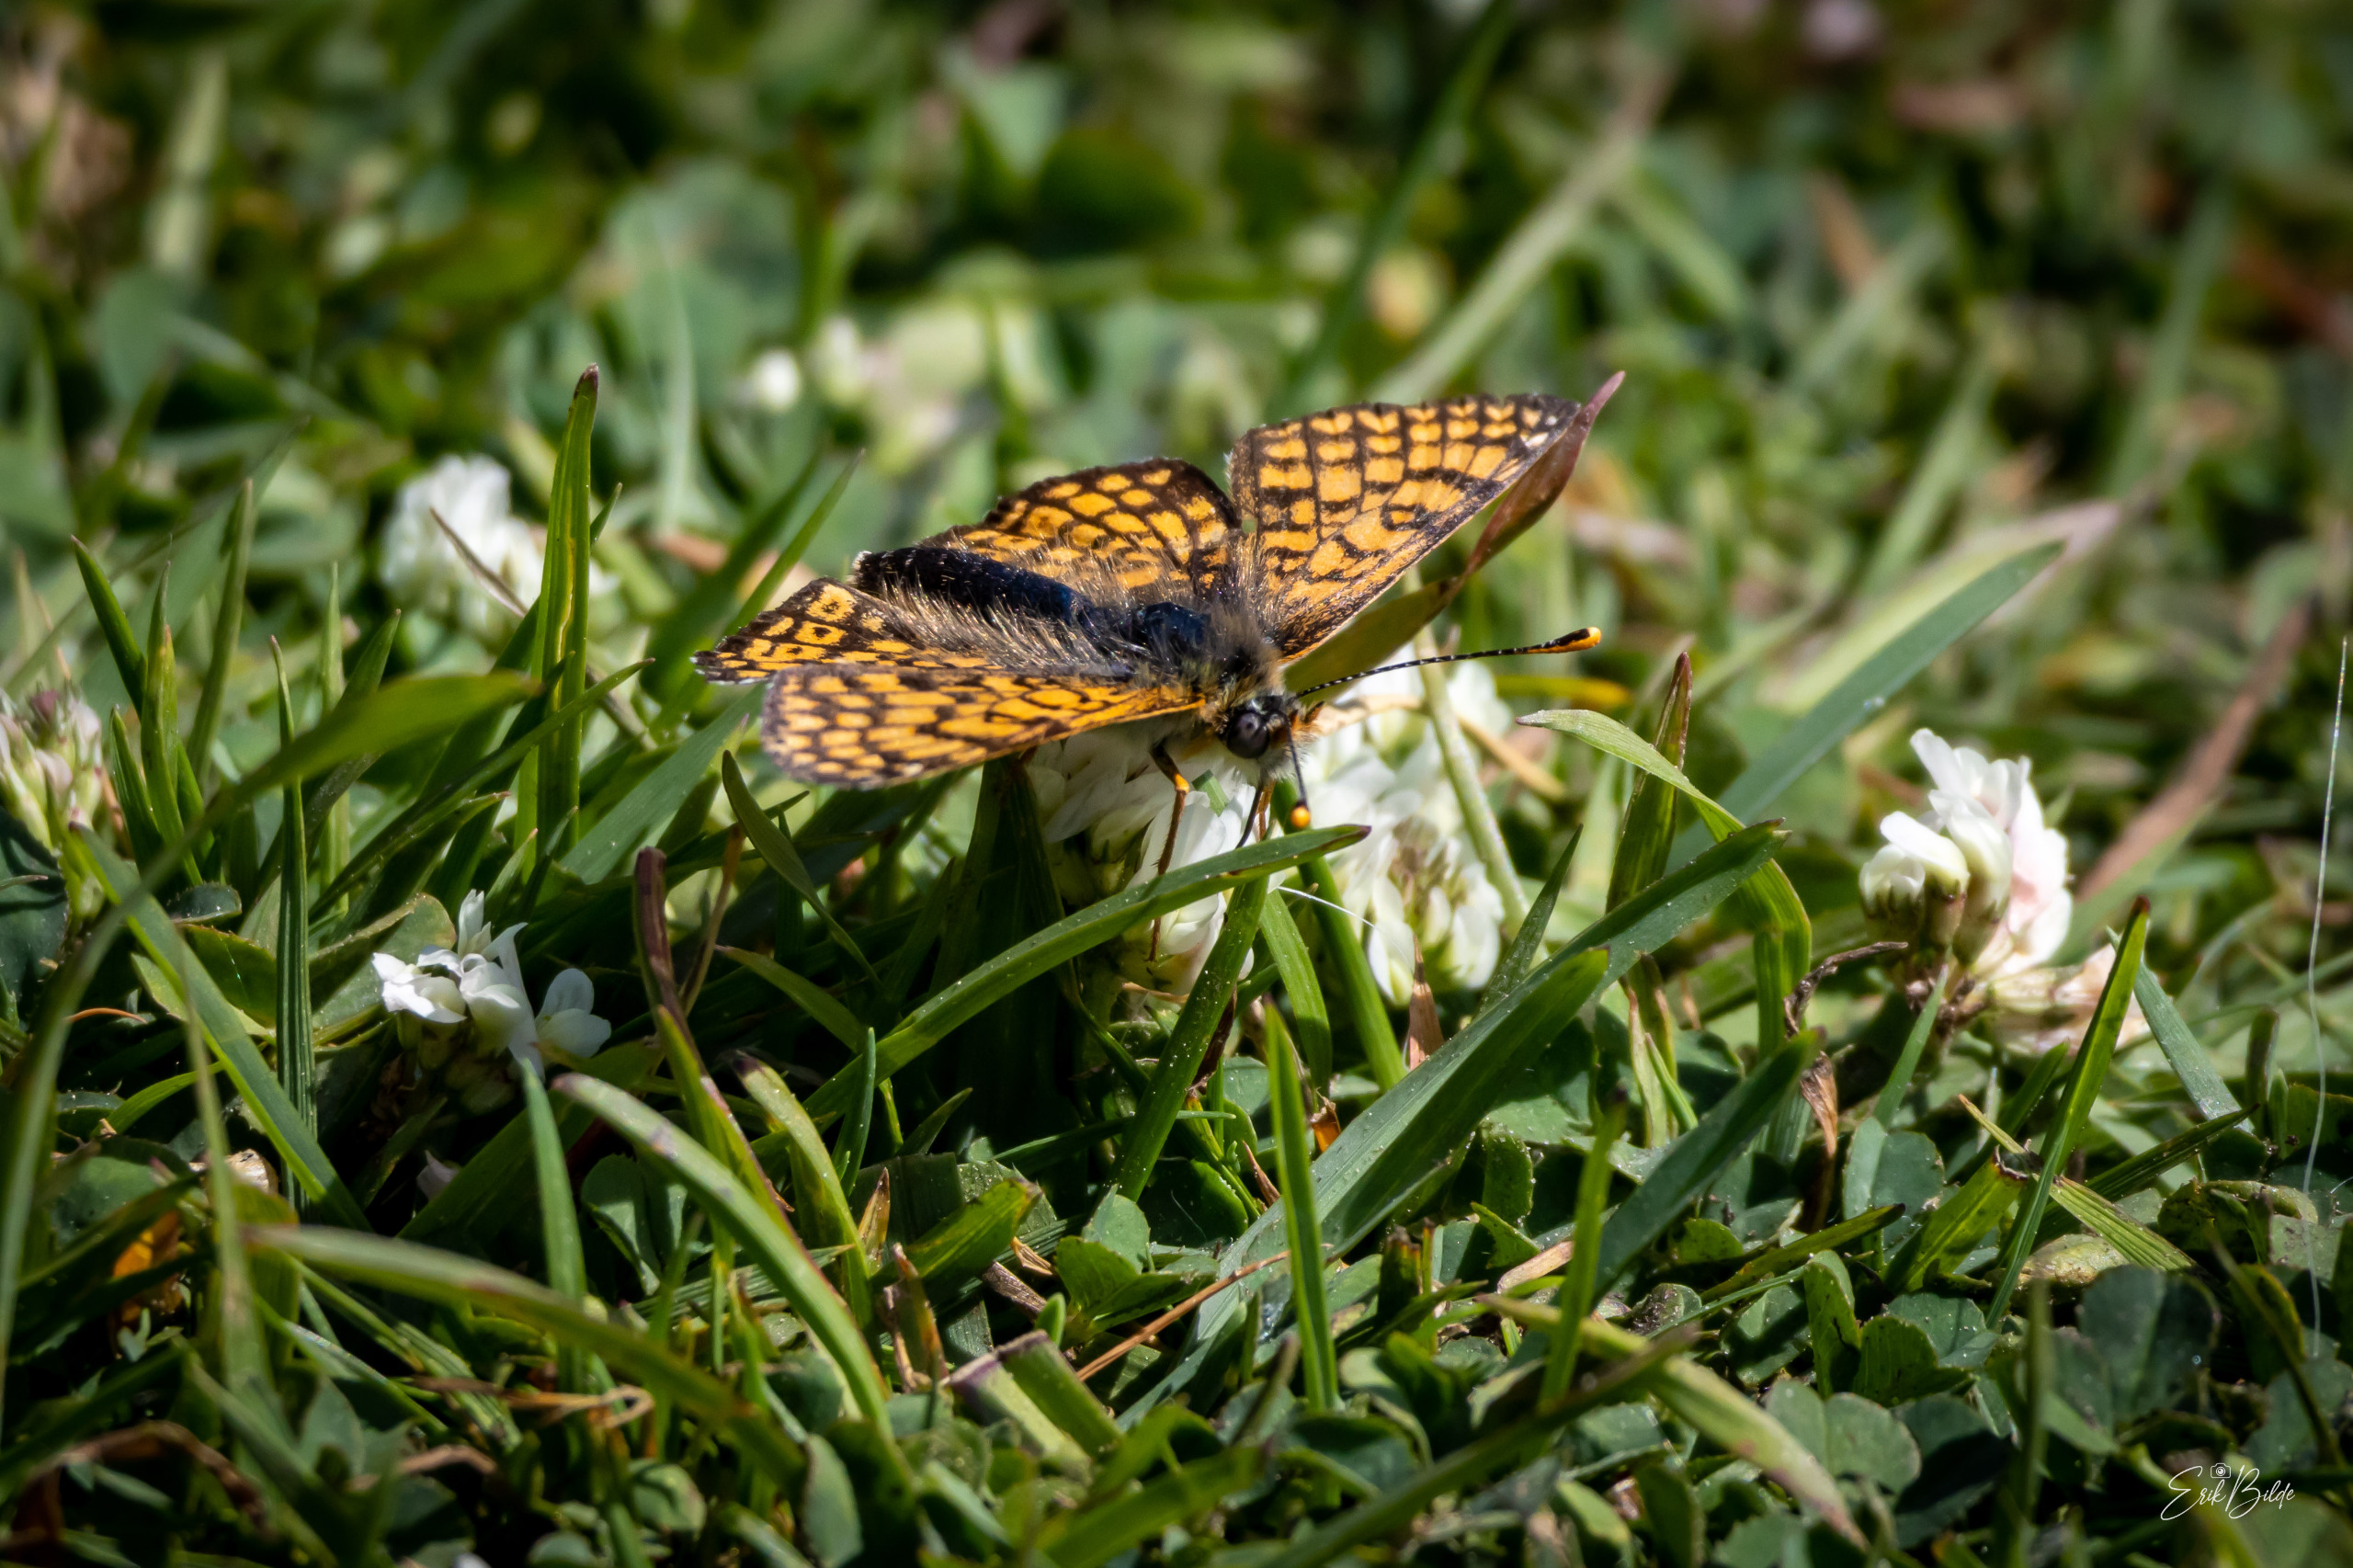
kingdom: Animalia
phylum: Arthropoda
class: Insecta
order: Lepidoptera
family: Nymphalidae
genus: Melitaea
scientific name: Melitaea cinxia
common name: Okkergul pletvinge
